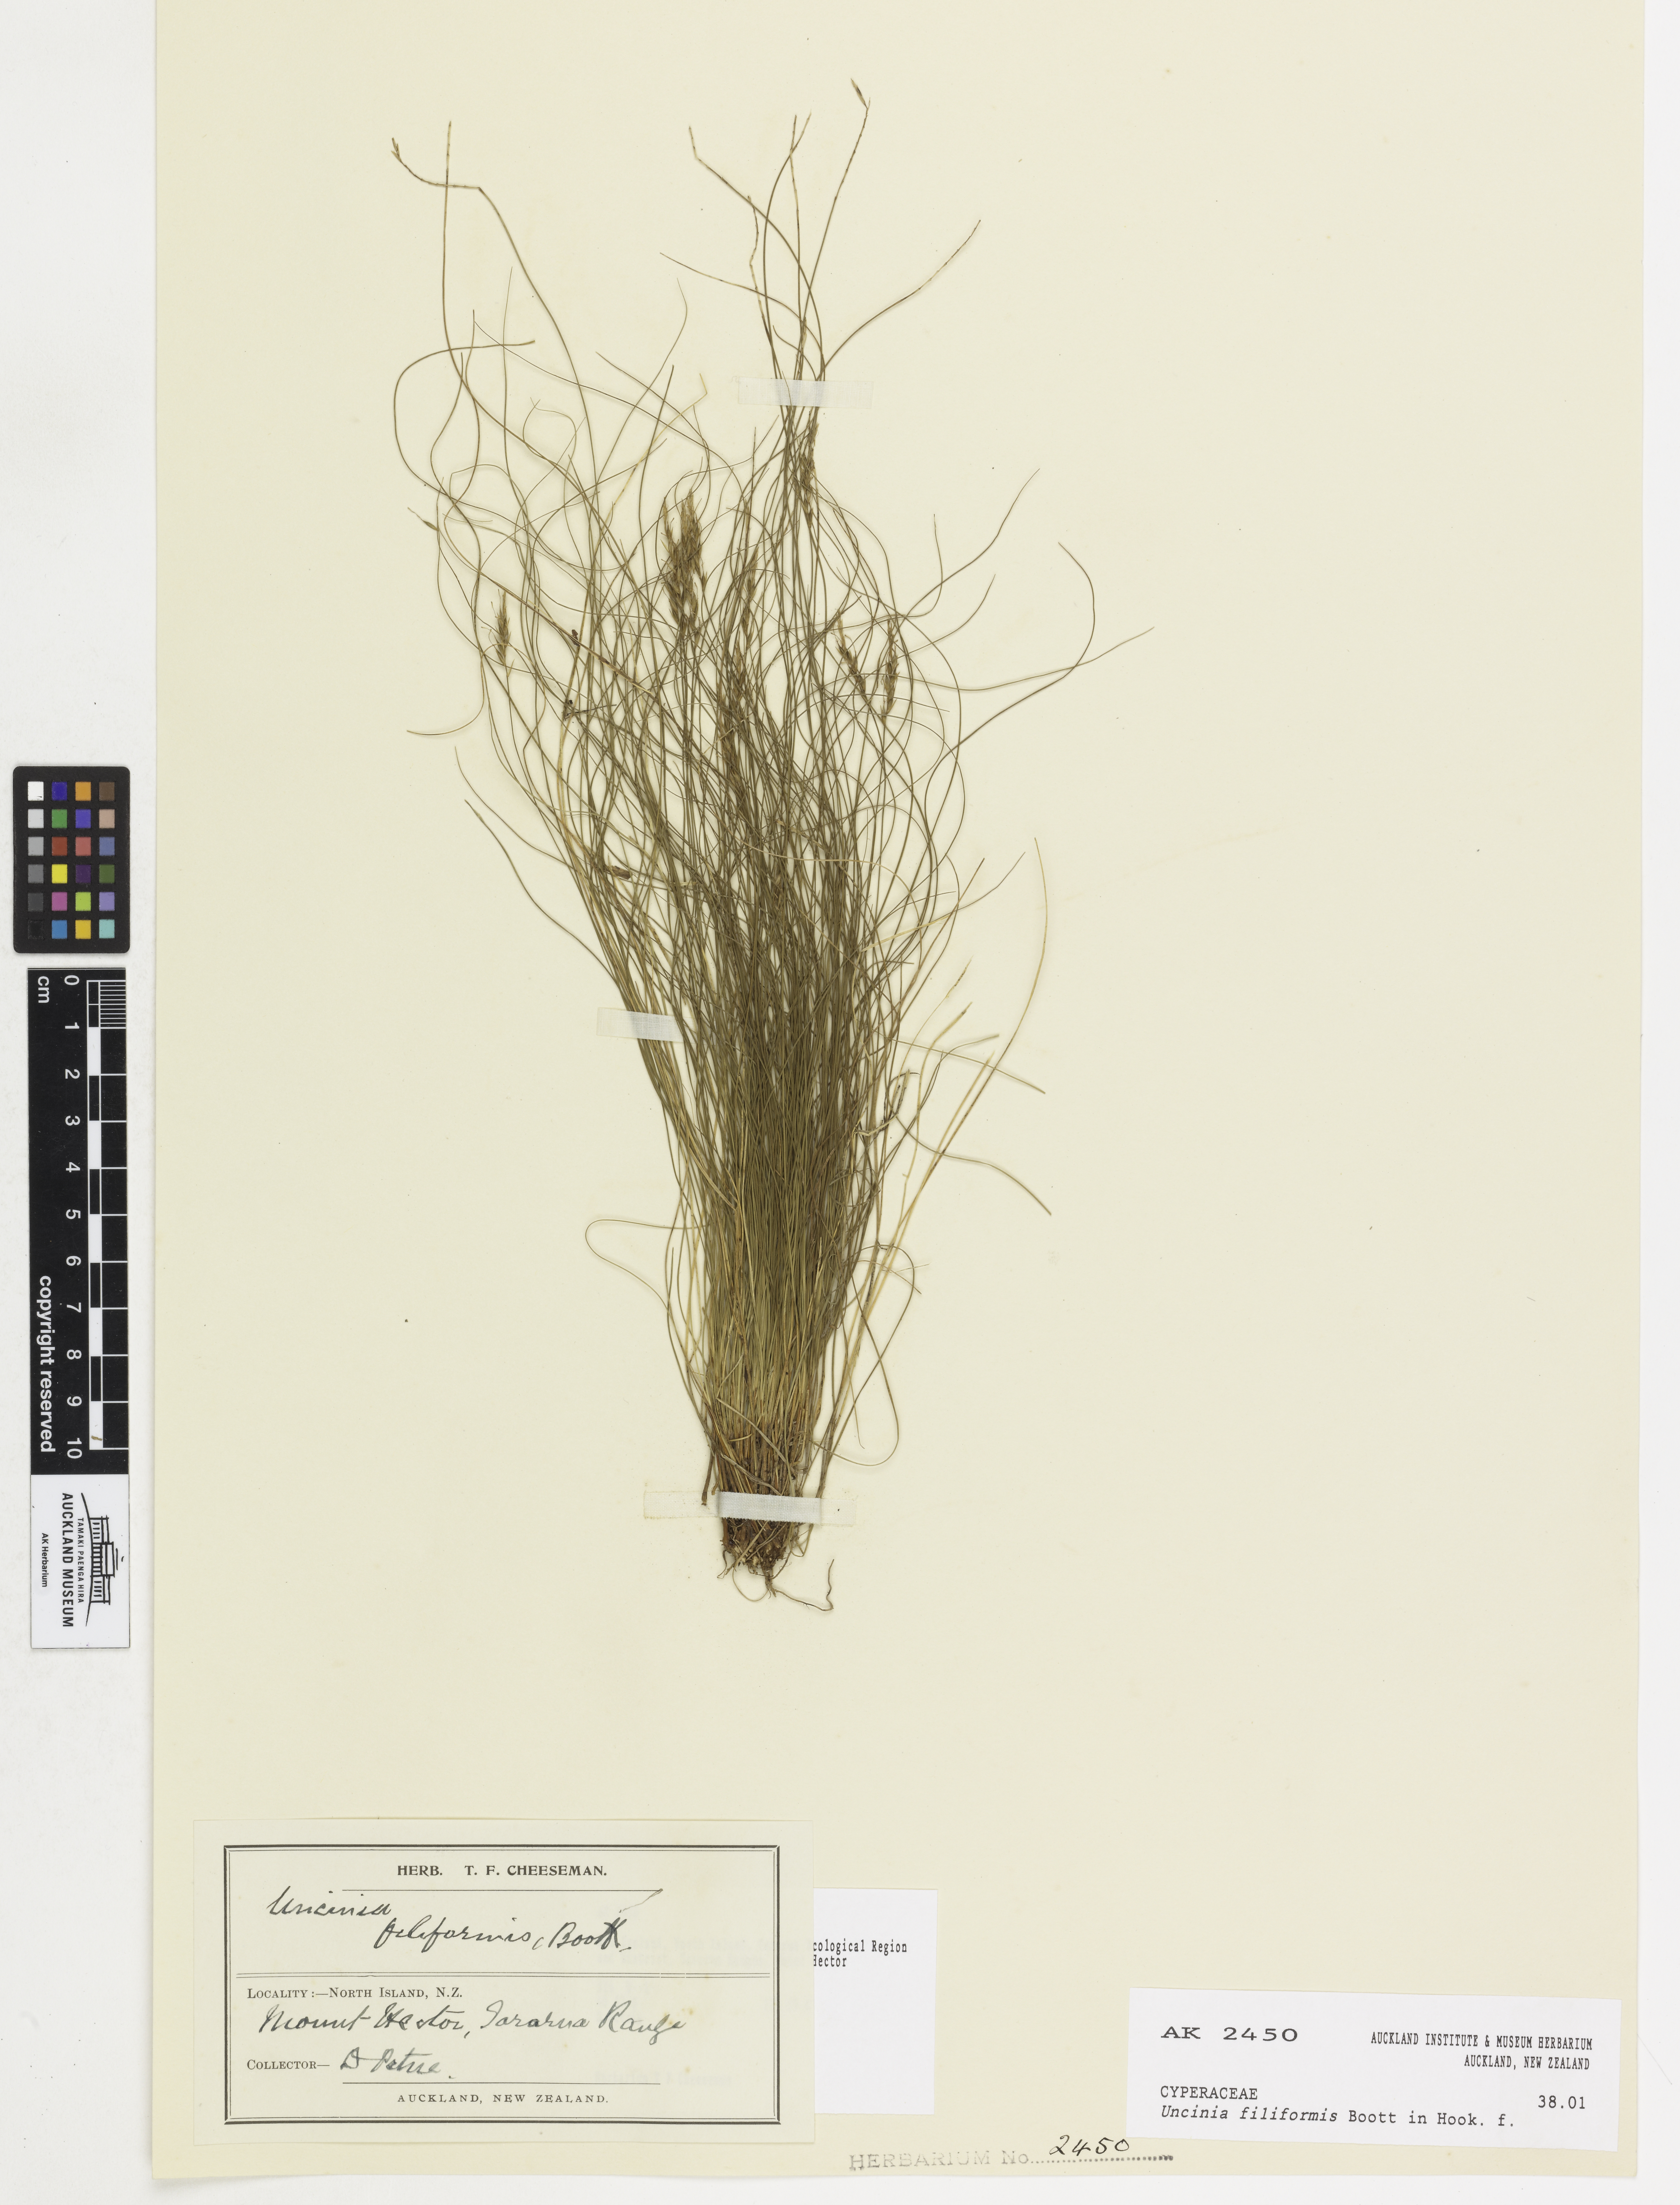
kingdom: Plantae
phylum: Tracheophyta
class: Liliopsida
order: Poales
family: Cyperaceae
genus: Carex
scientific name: Carex lectissima
